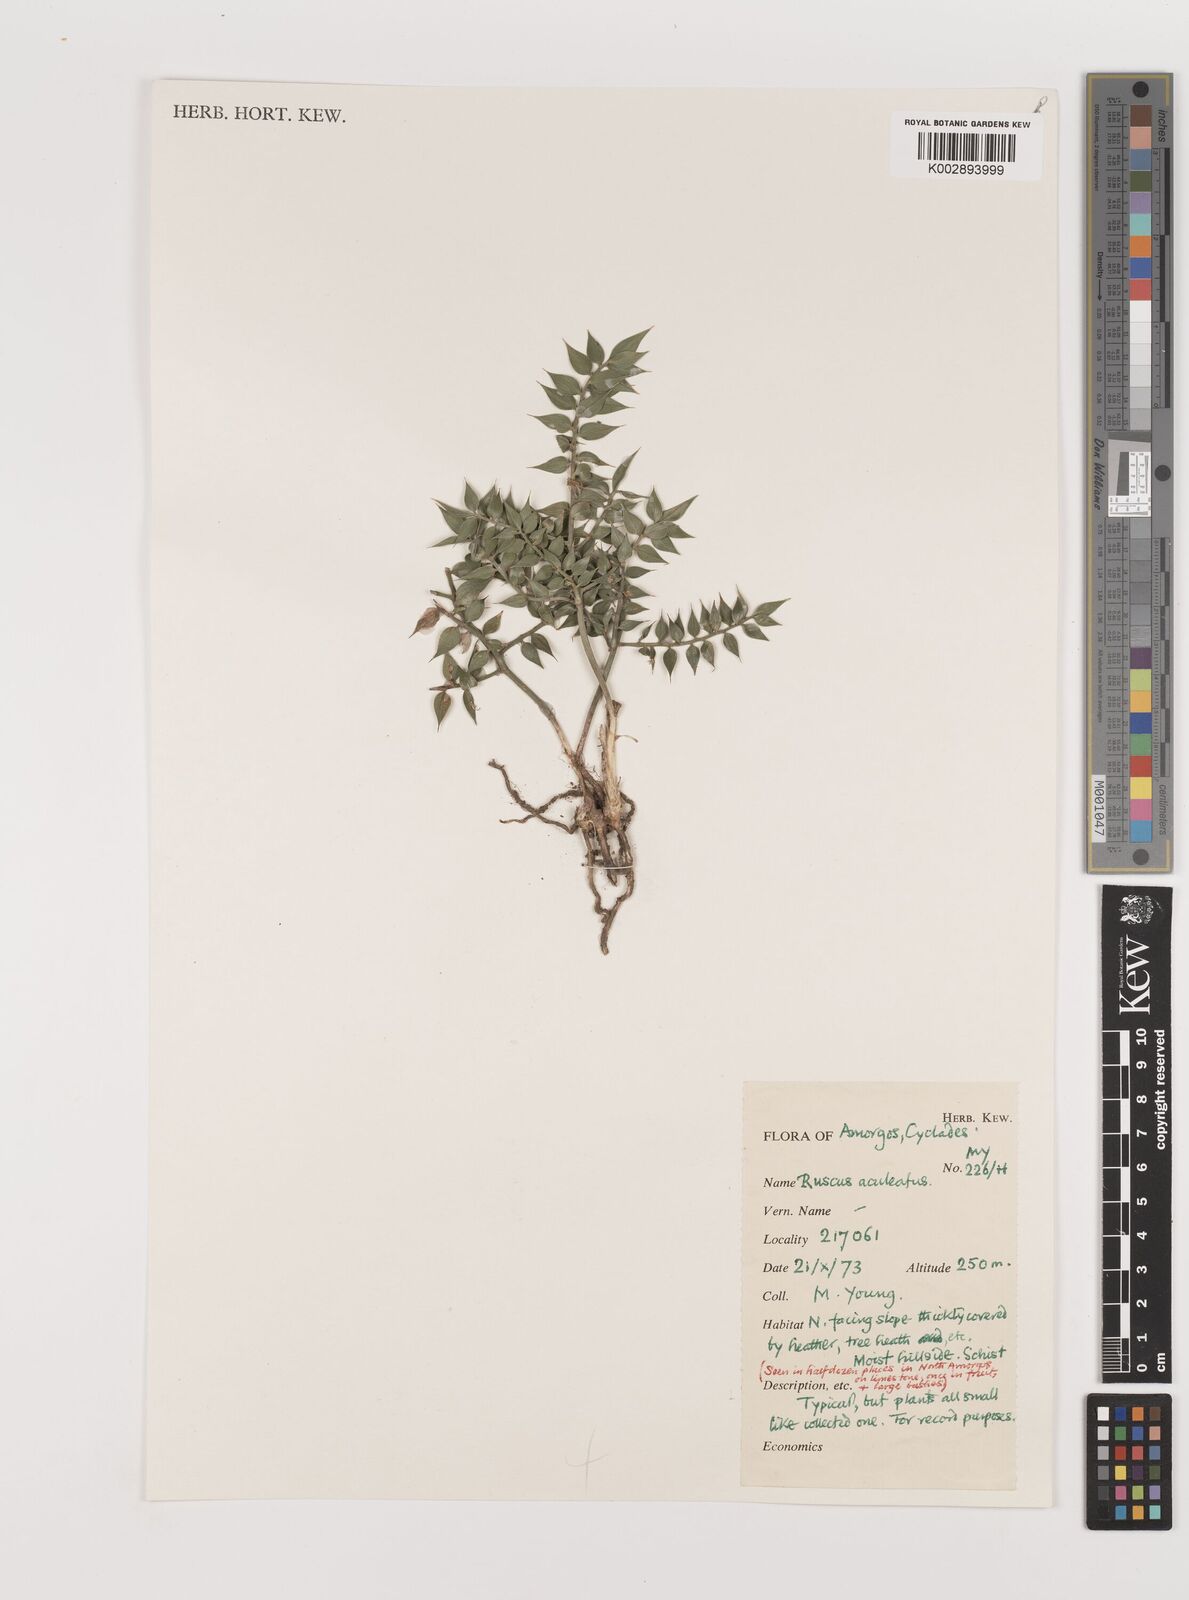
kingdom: Plantae
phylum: Tracheophyta
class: Liliopsida
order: Asparagales
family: Asparagaceae
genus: Ruscus
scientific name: Ruscus aculeatus
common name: Butcher's-broom
